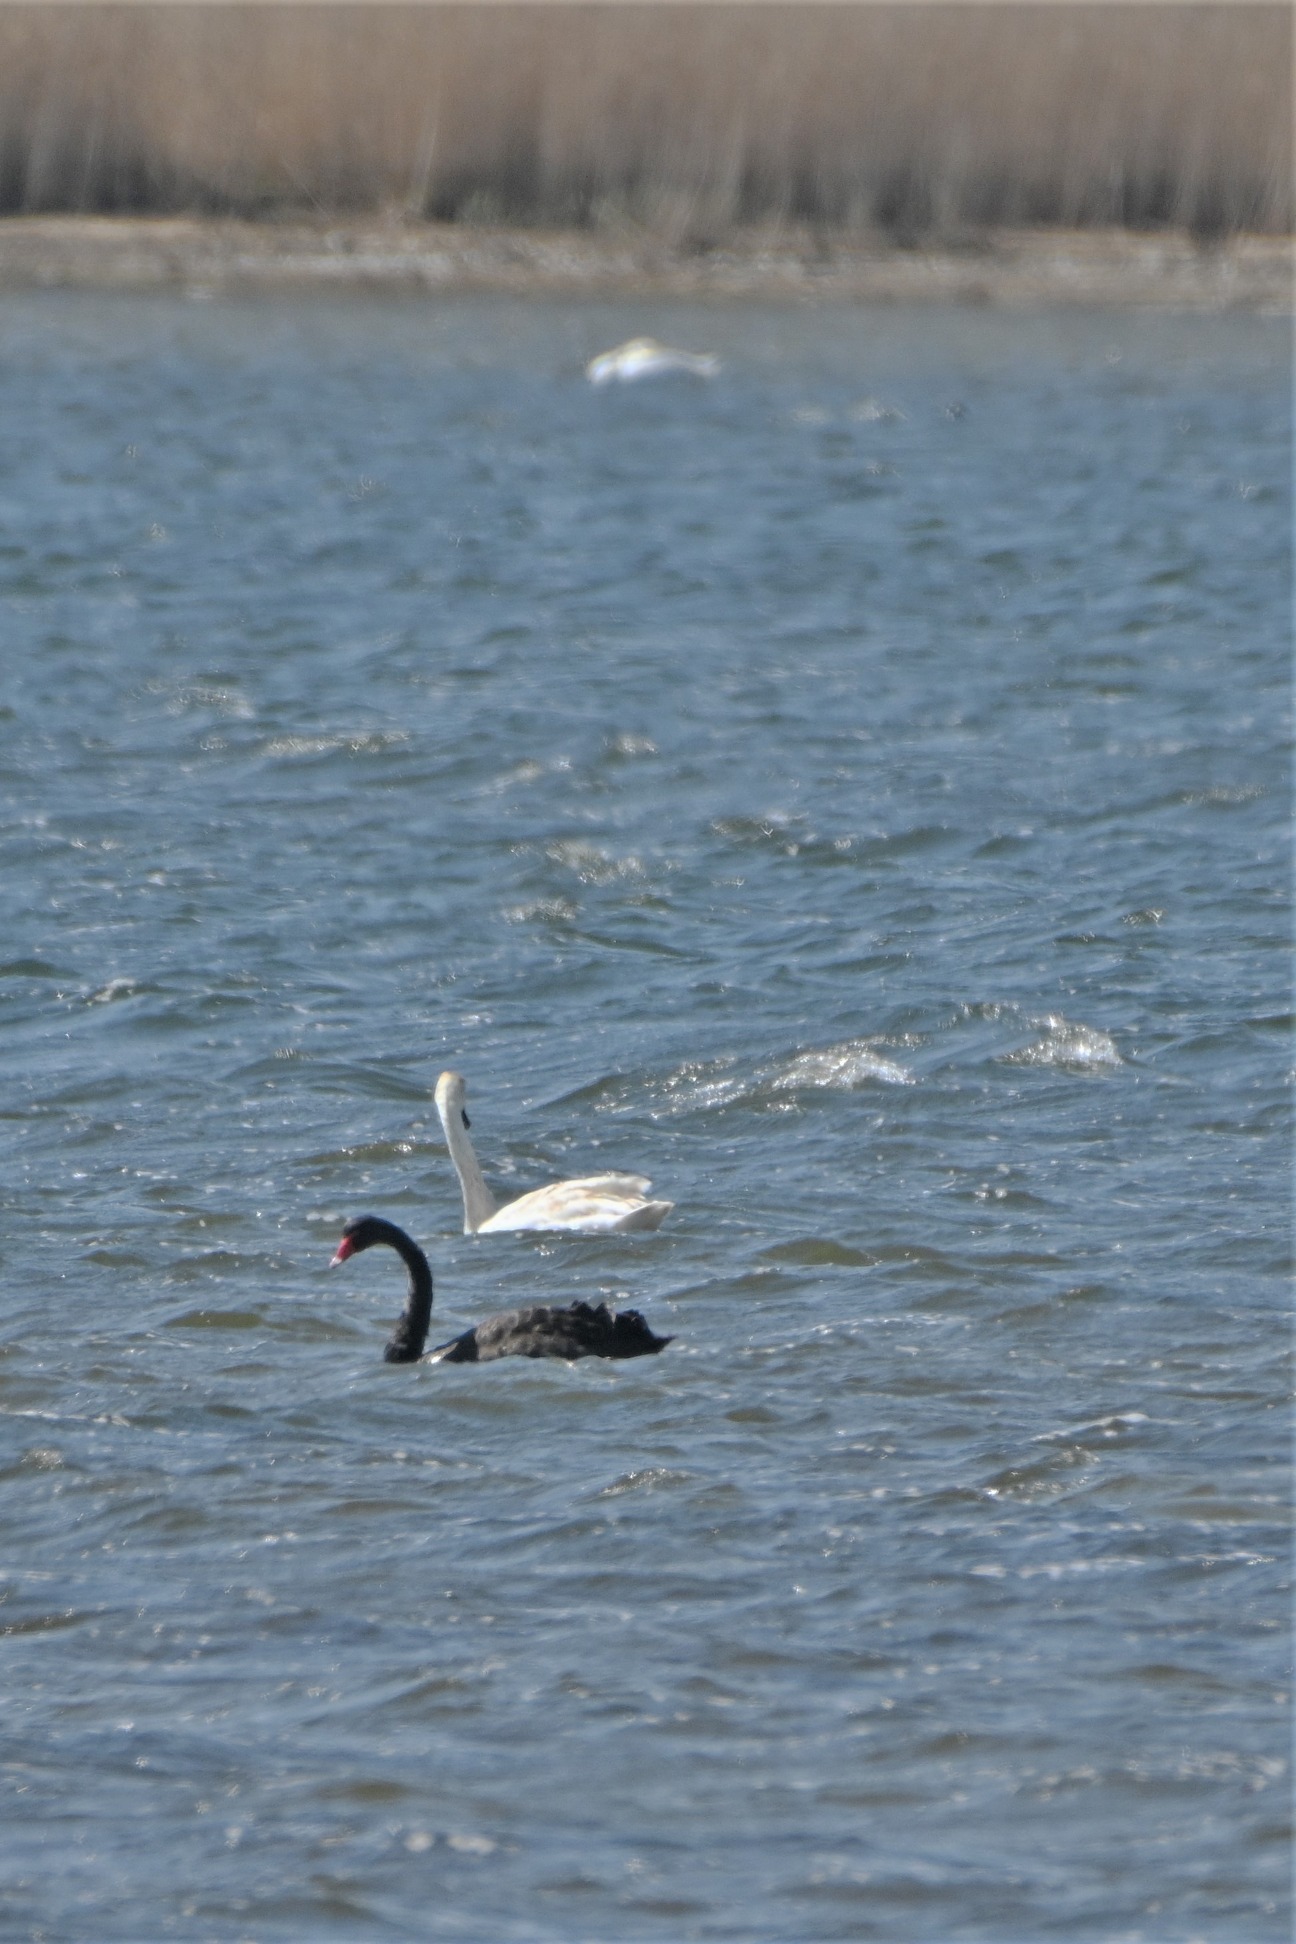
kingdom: Animalia
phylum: Chordata
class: Aves
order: Anseriformes
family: Anatidae
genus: Cygnus
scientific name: Cygnus atratus
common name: Sortsvane
